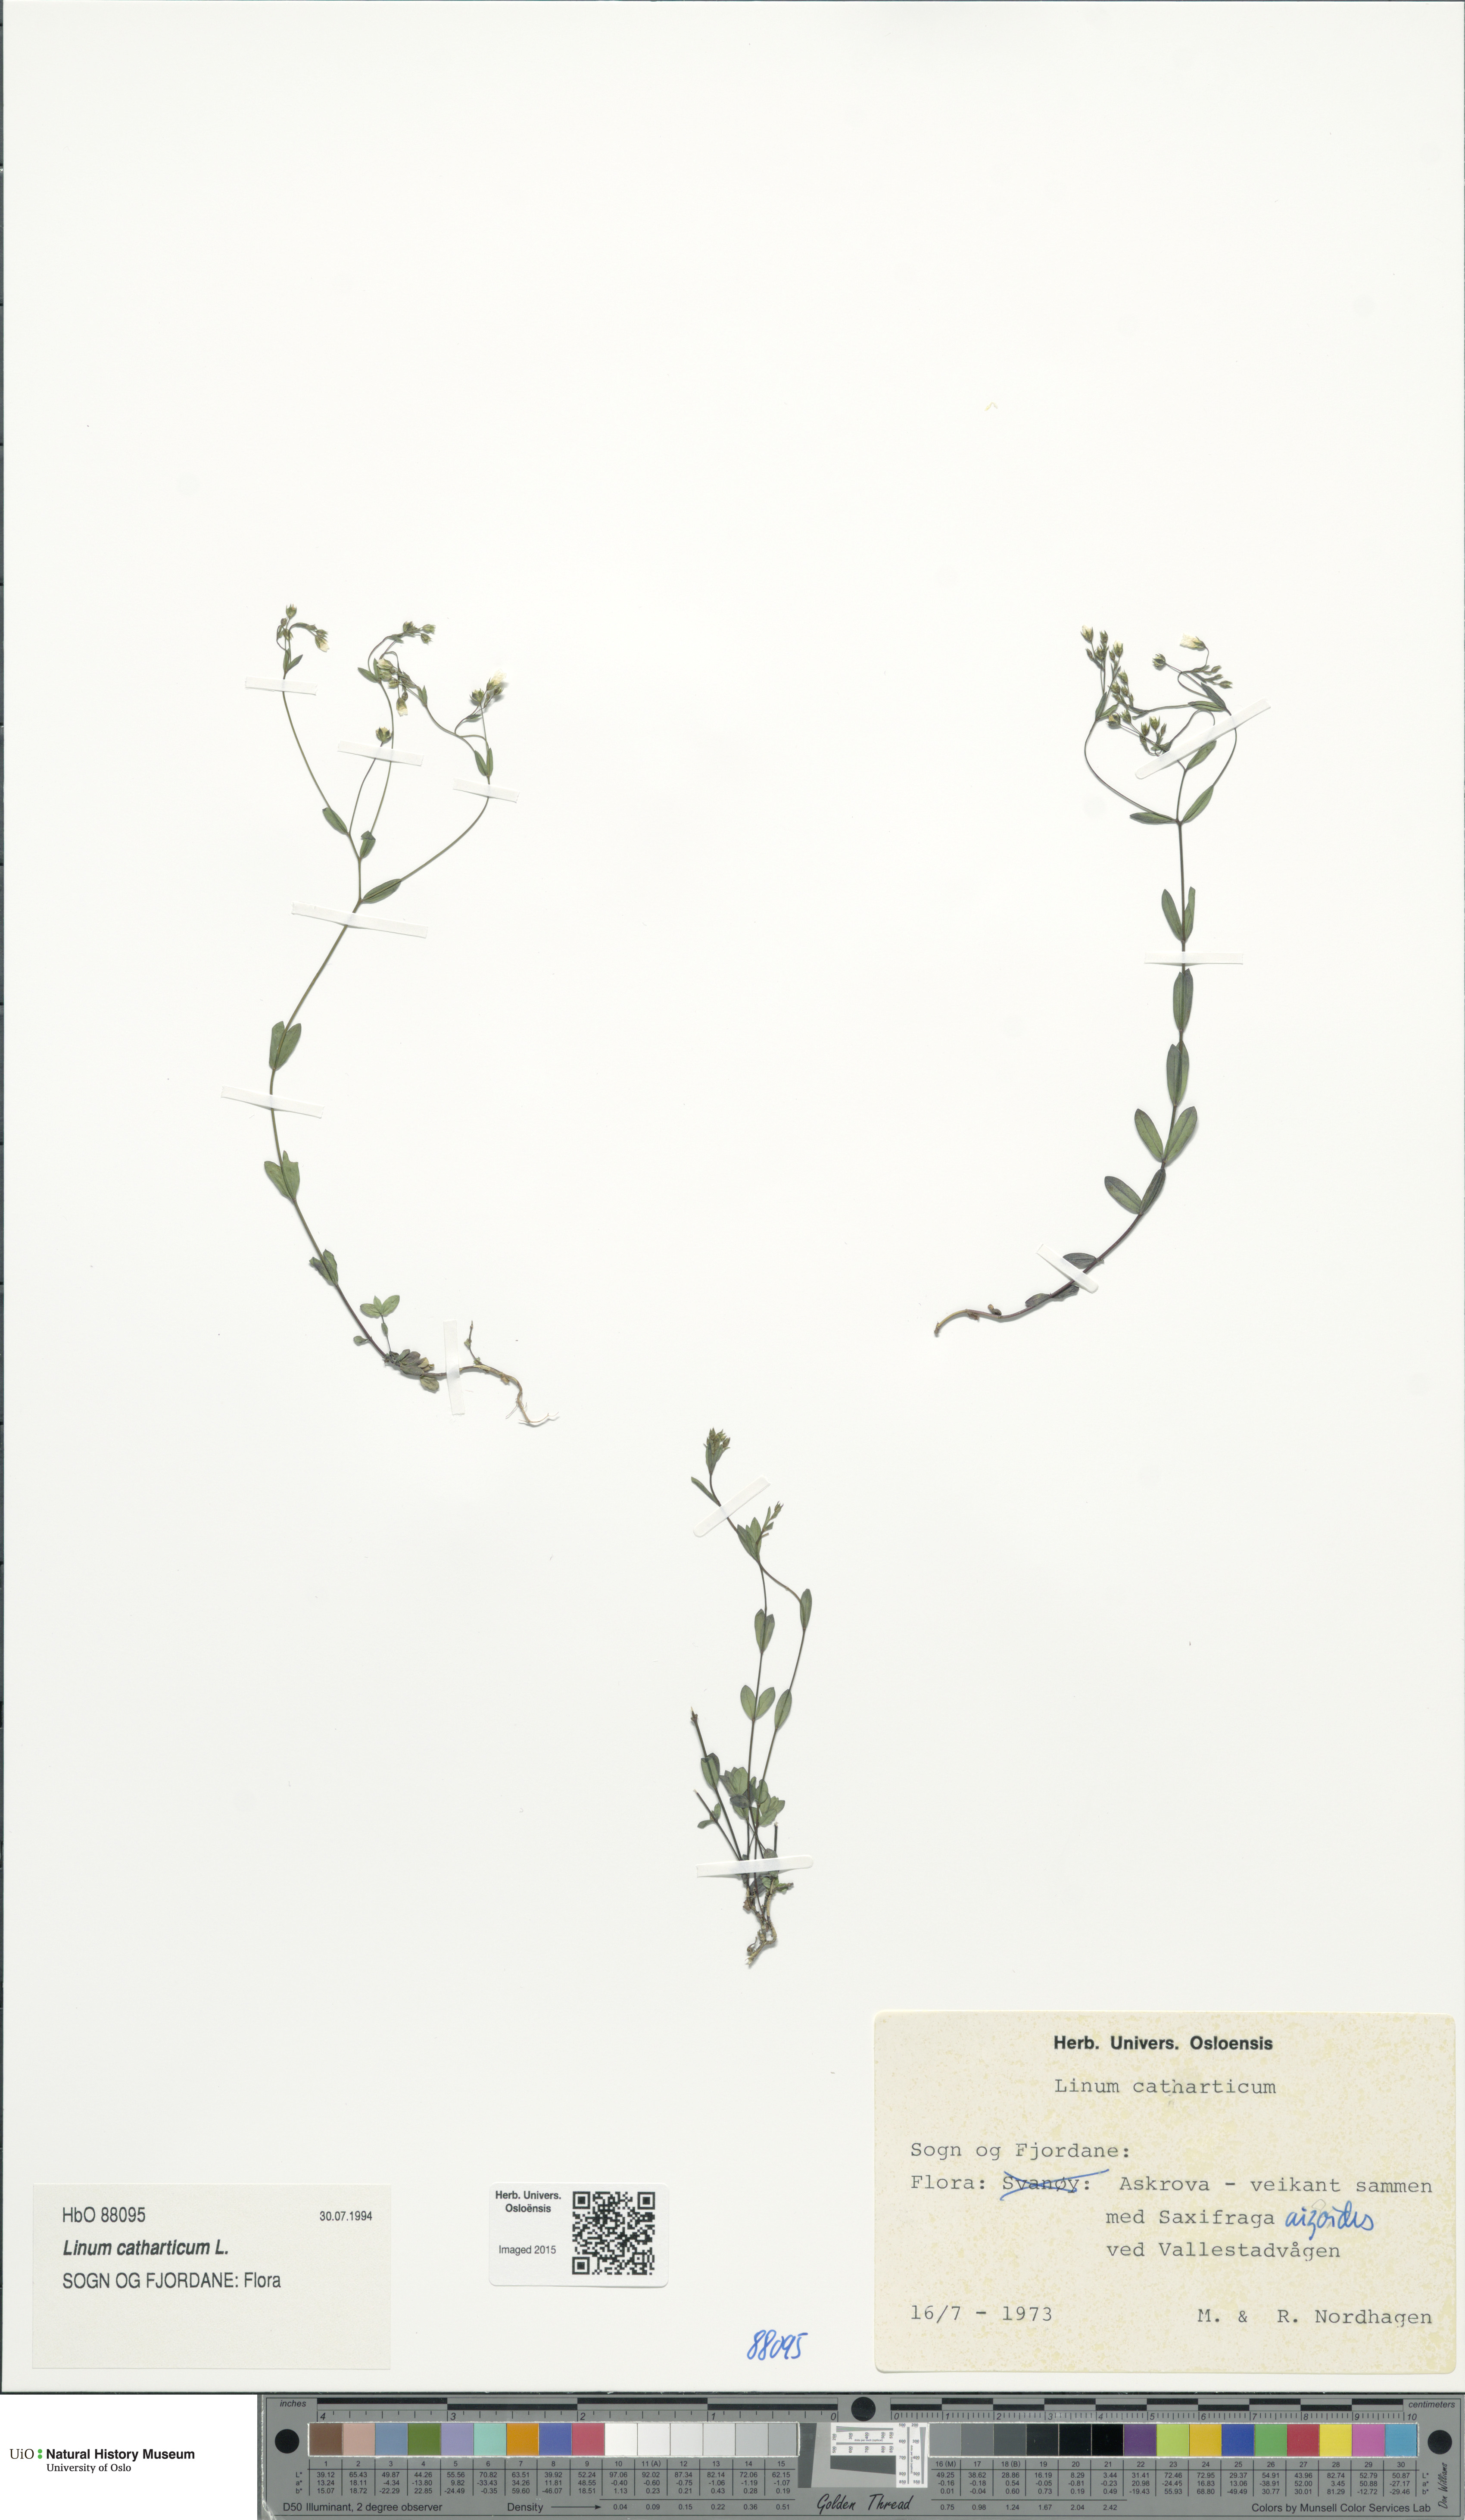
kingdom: Plantae
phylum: Tracheophyta
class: Magnoliopsida
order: Malpighiales
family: Linaceae
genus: Linum
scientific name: Linum catharticum
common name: Fairy flax
